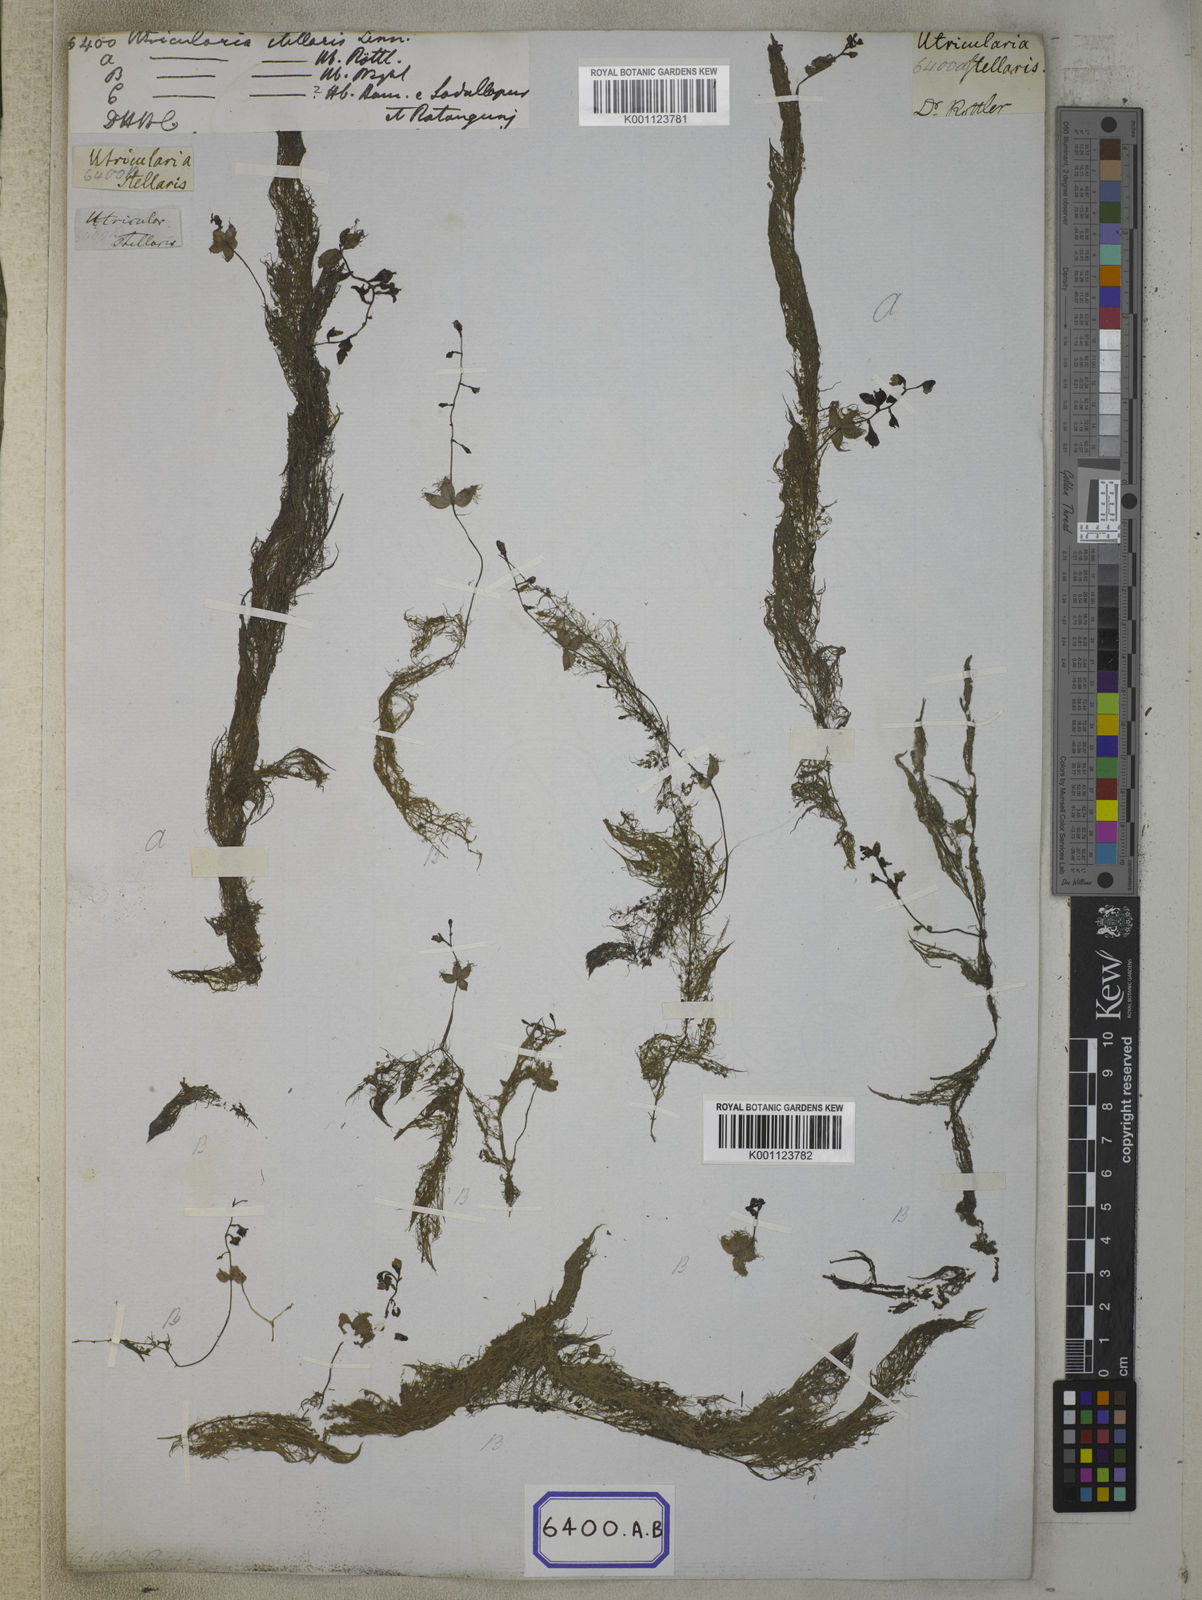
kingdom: Plantae
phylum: Tracheophyta
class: Magnoliopsida
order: Lamiales
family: Lentibulariaceae
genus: Utricularia
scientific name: Utricularia stellaris
